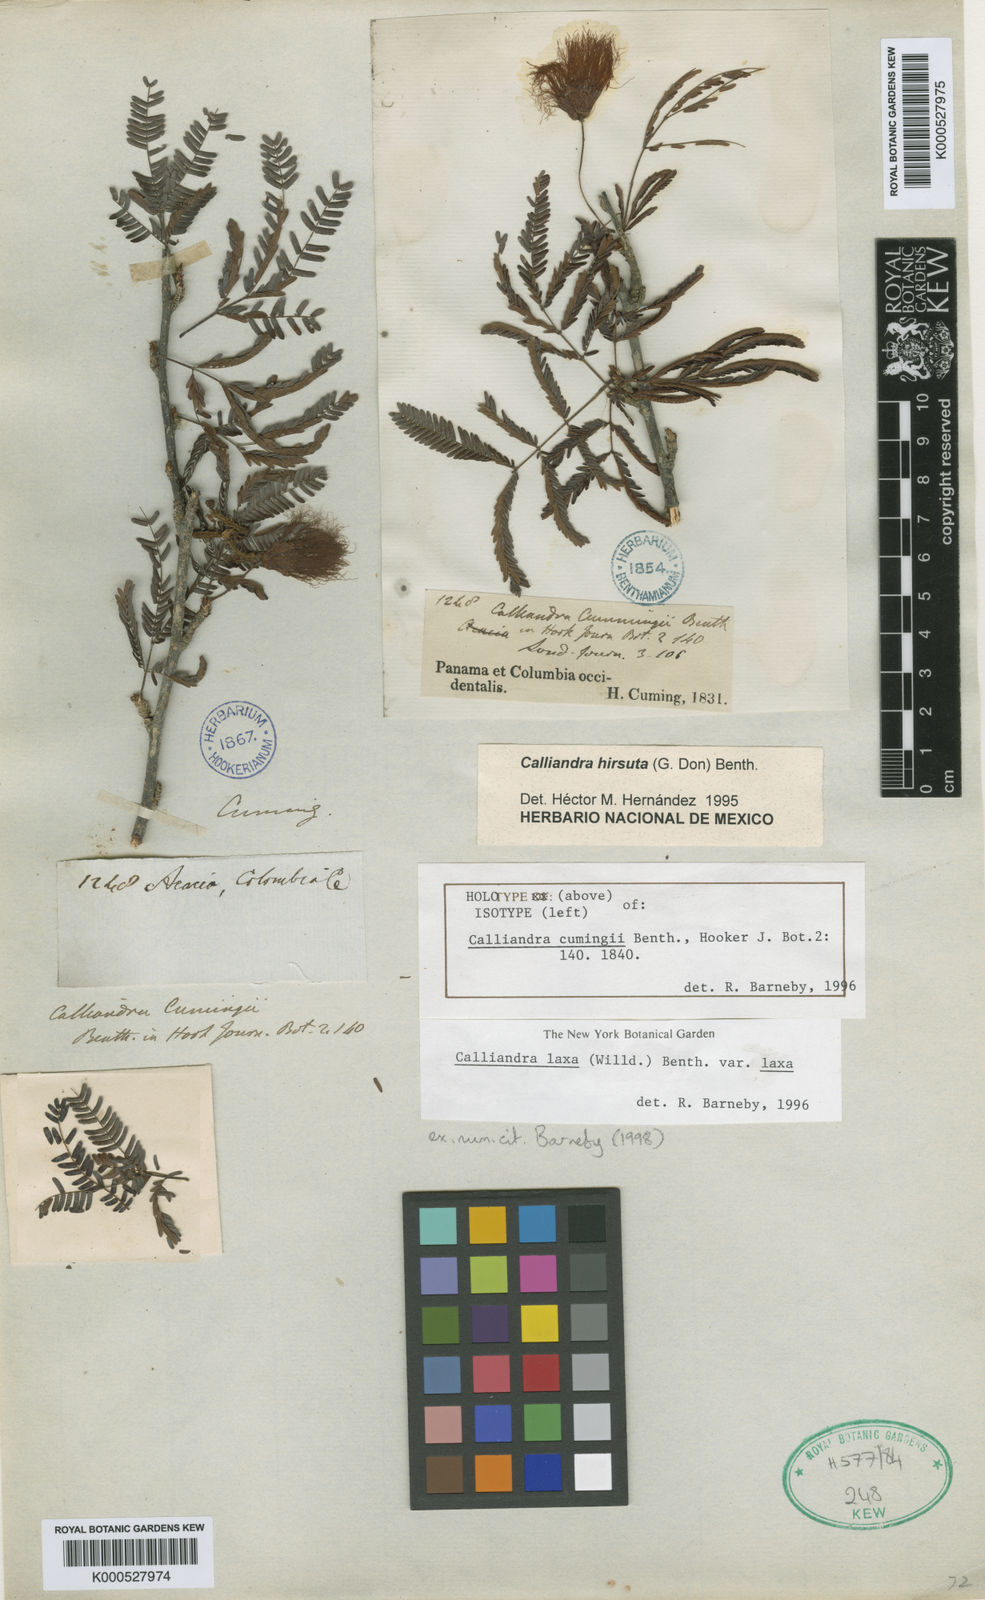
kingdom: Plantae
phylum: Tracheophyta
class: Magnoliopsida
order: Fabales
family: Fabaceae
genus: Calliandra
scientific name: Calliandra laxa
